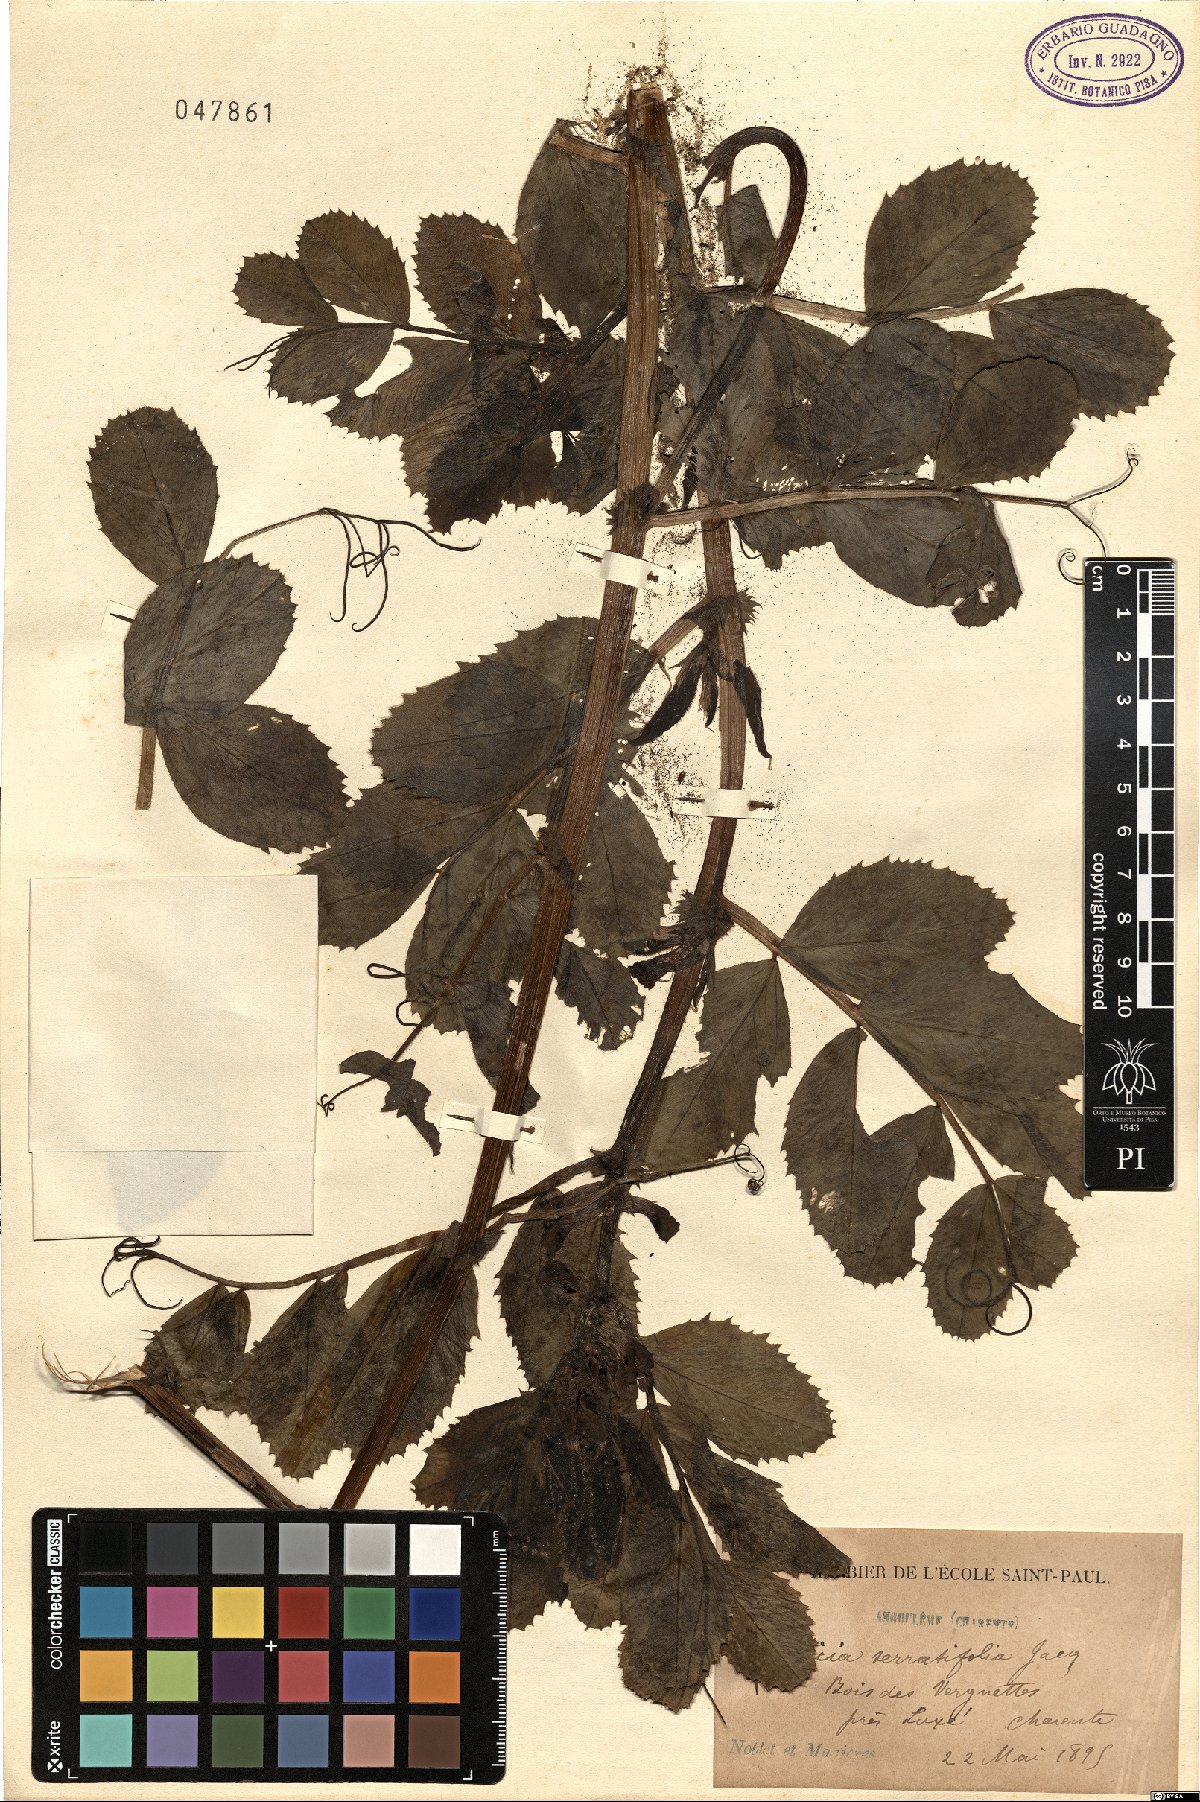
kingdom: Plantae
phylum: Tracheophyta
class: Magnoliopsida
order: Fabales
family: Fabaceae
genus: Vicia
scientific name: Vicia serratifolia
